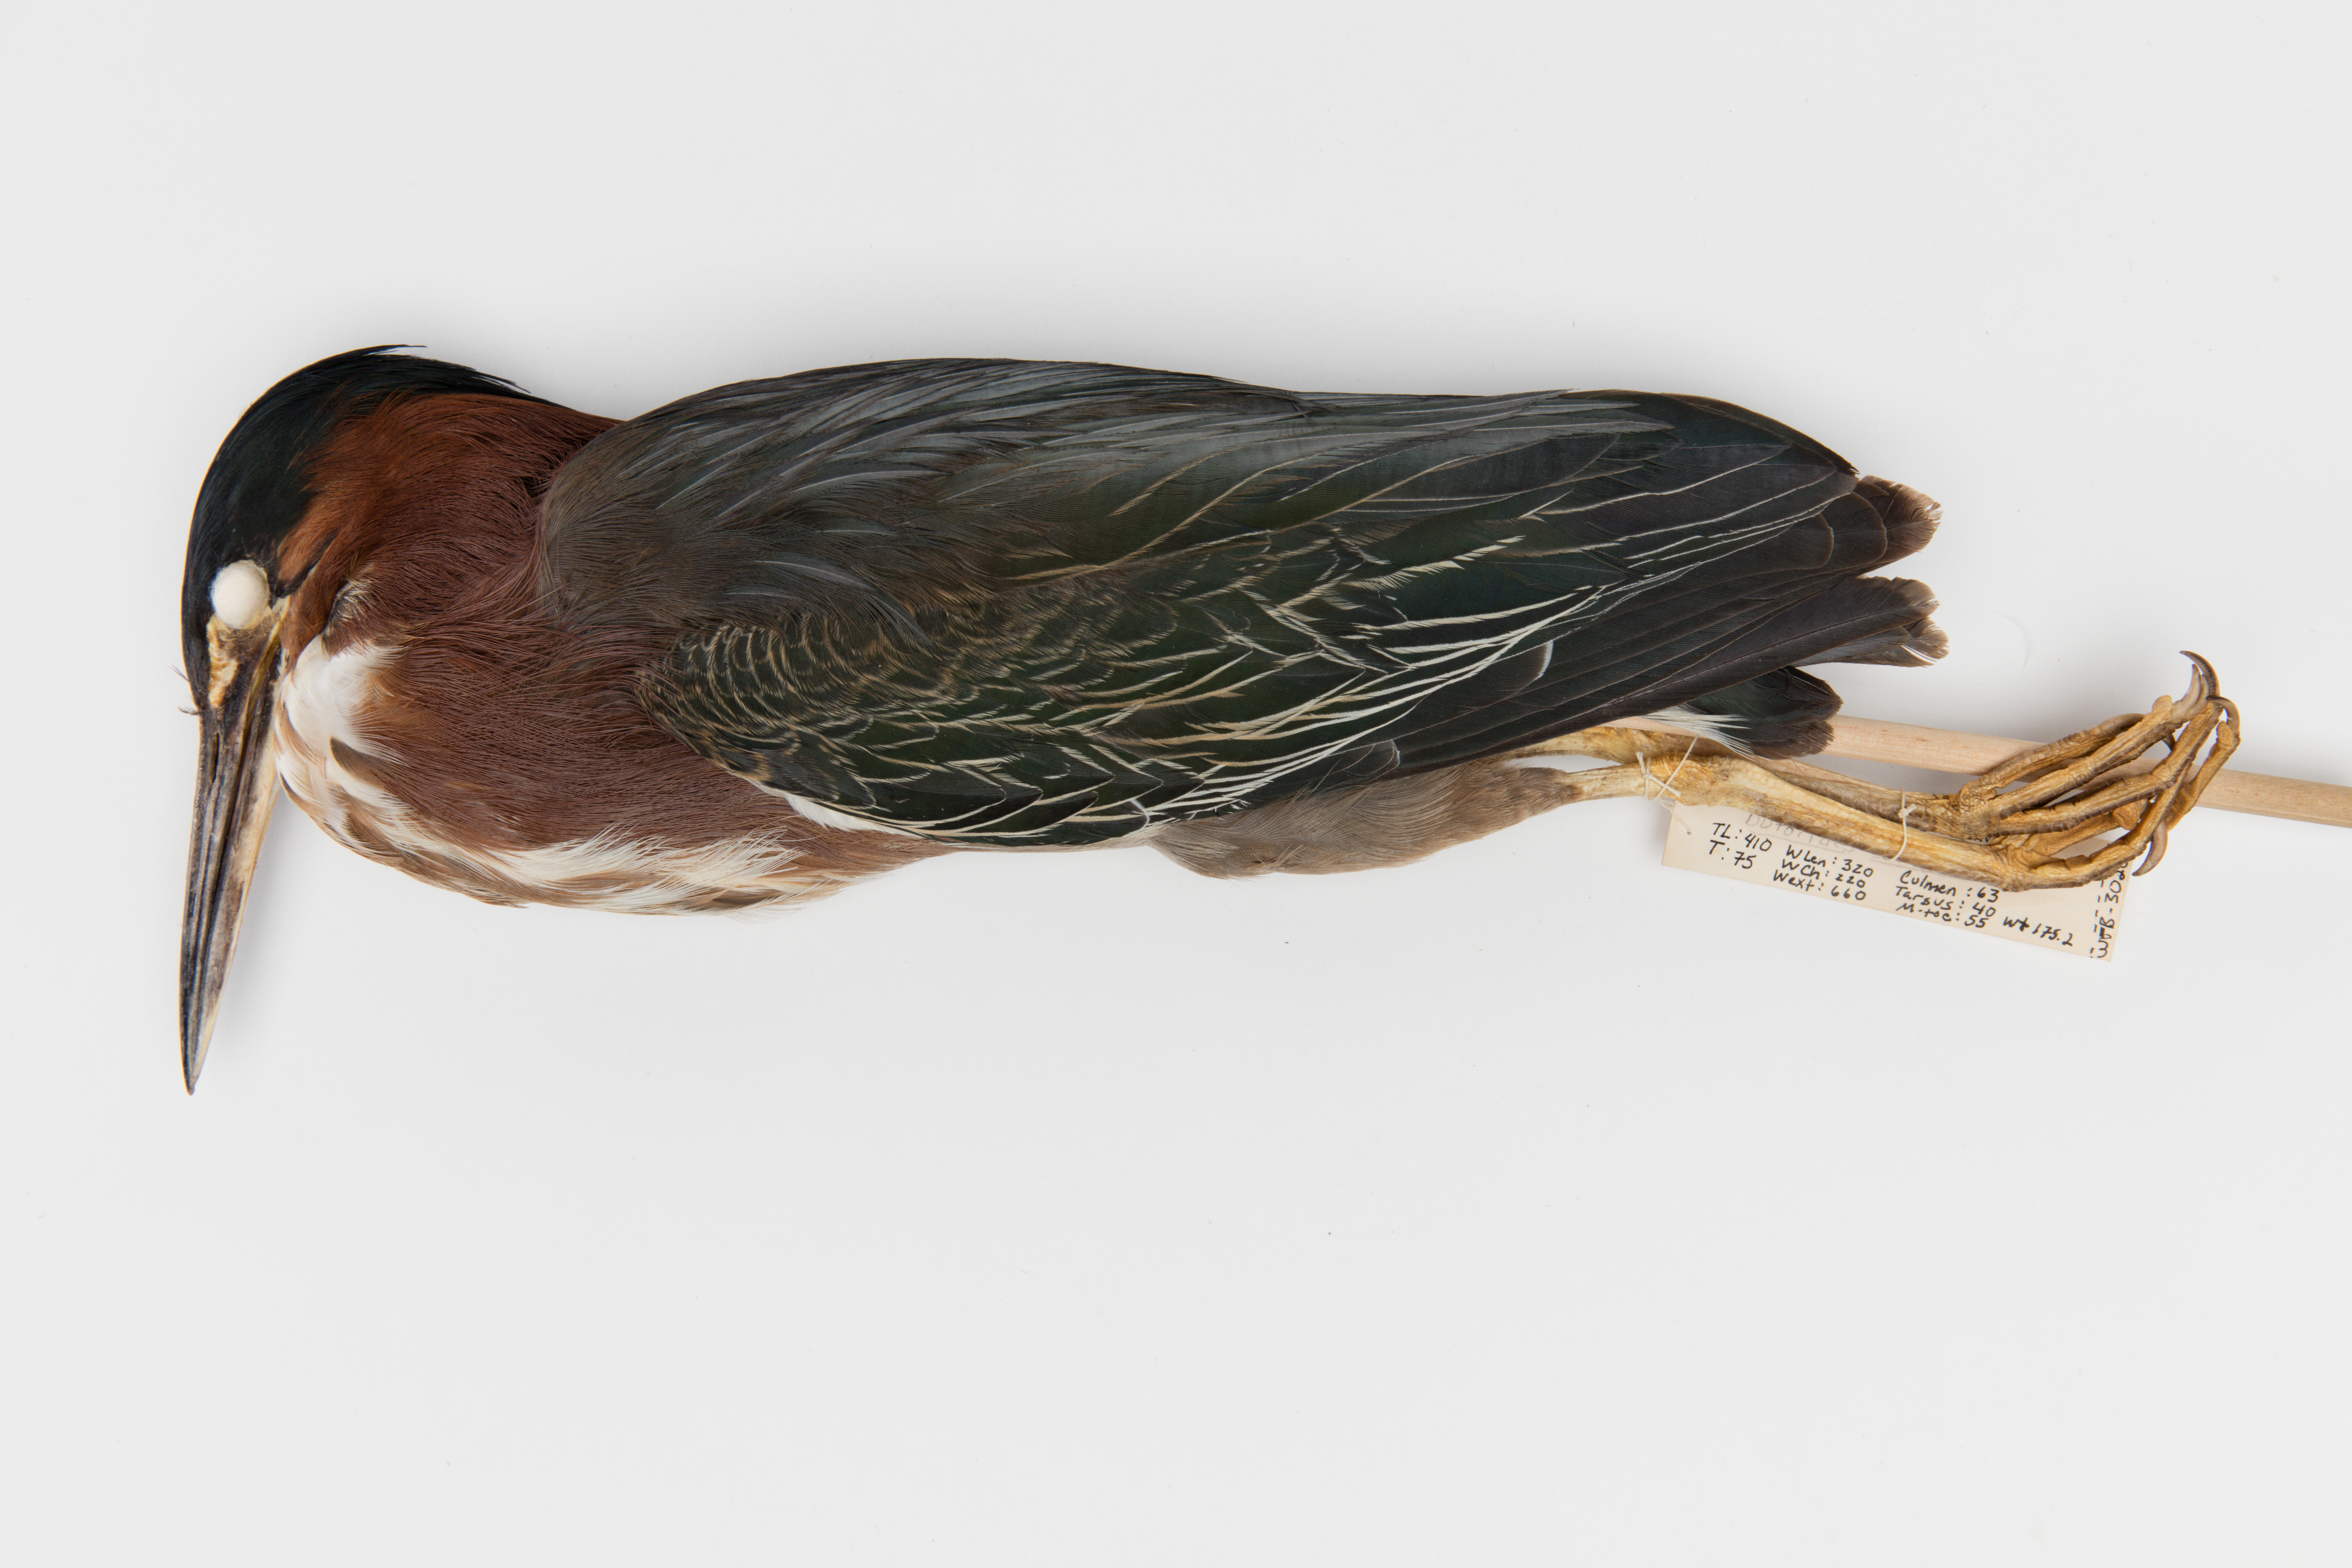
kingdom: Animalia
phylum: Chordata
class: Aves
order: Pelecaniformes
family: Ardeidae
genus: Butorides
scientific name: Butorides striata
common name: Striated heron
